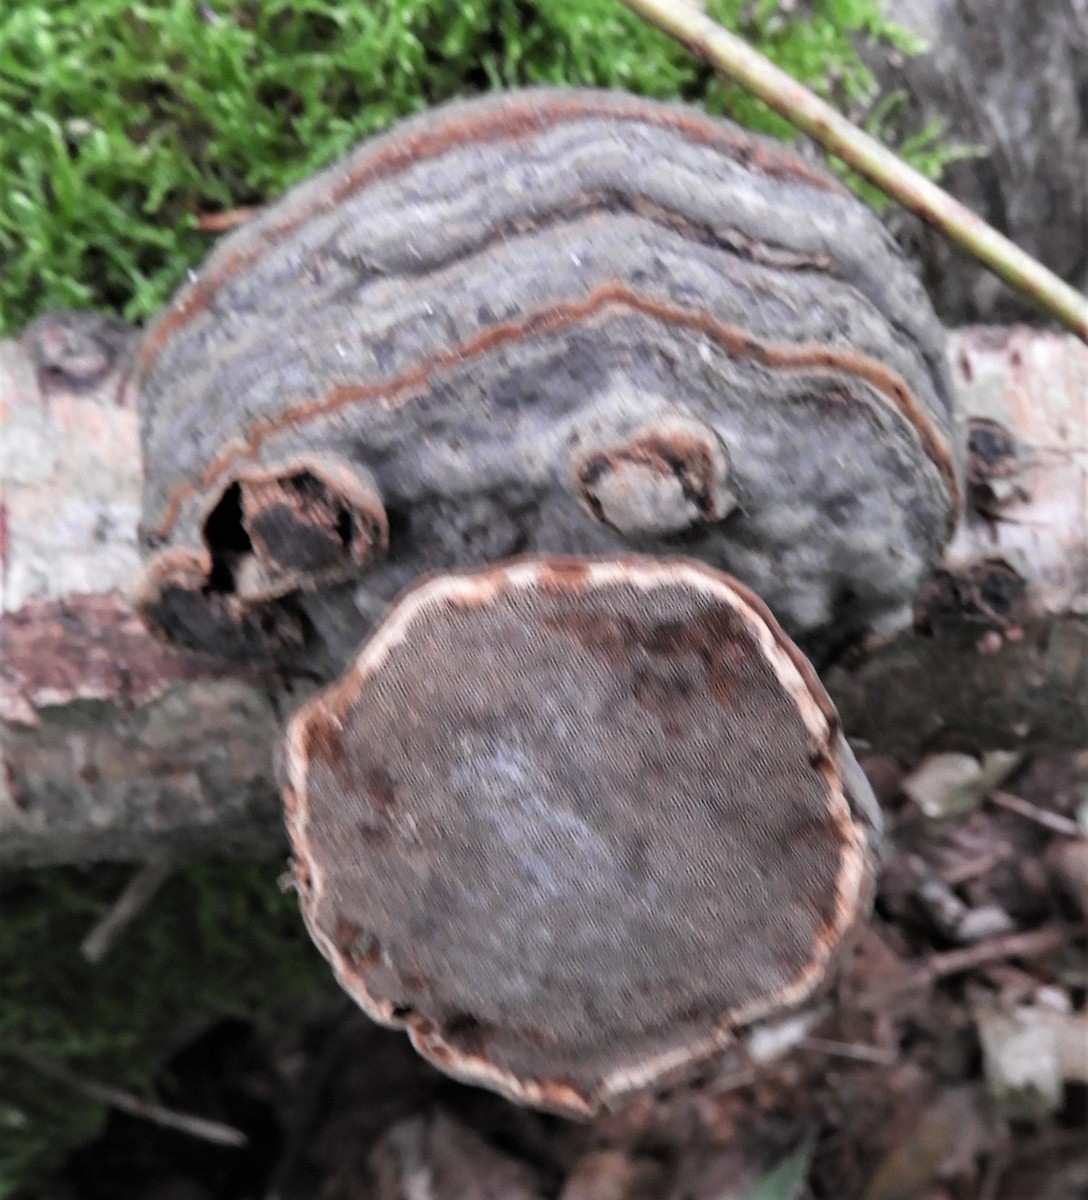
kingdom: Fungi
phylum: Basidiomycota
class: Agaricomycetes
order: Polyporales
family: Polyporaceae
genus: Fomes
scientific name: Fomes fomentarius
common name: tøndersvamp
